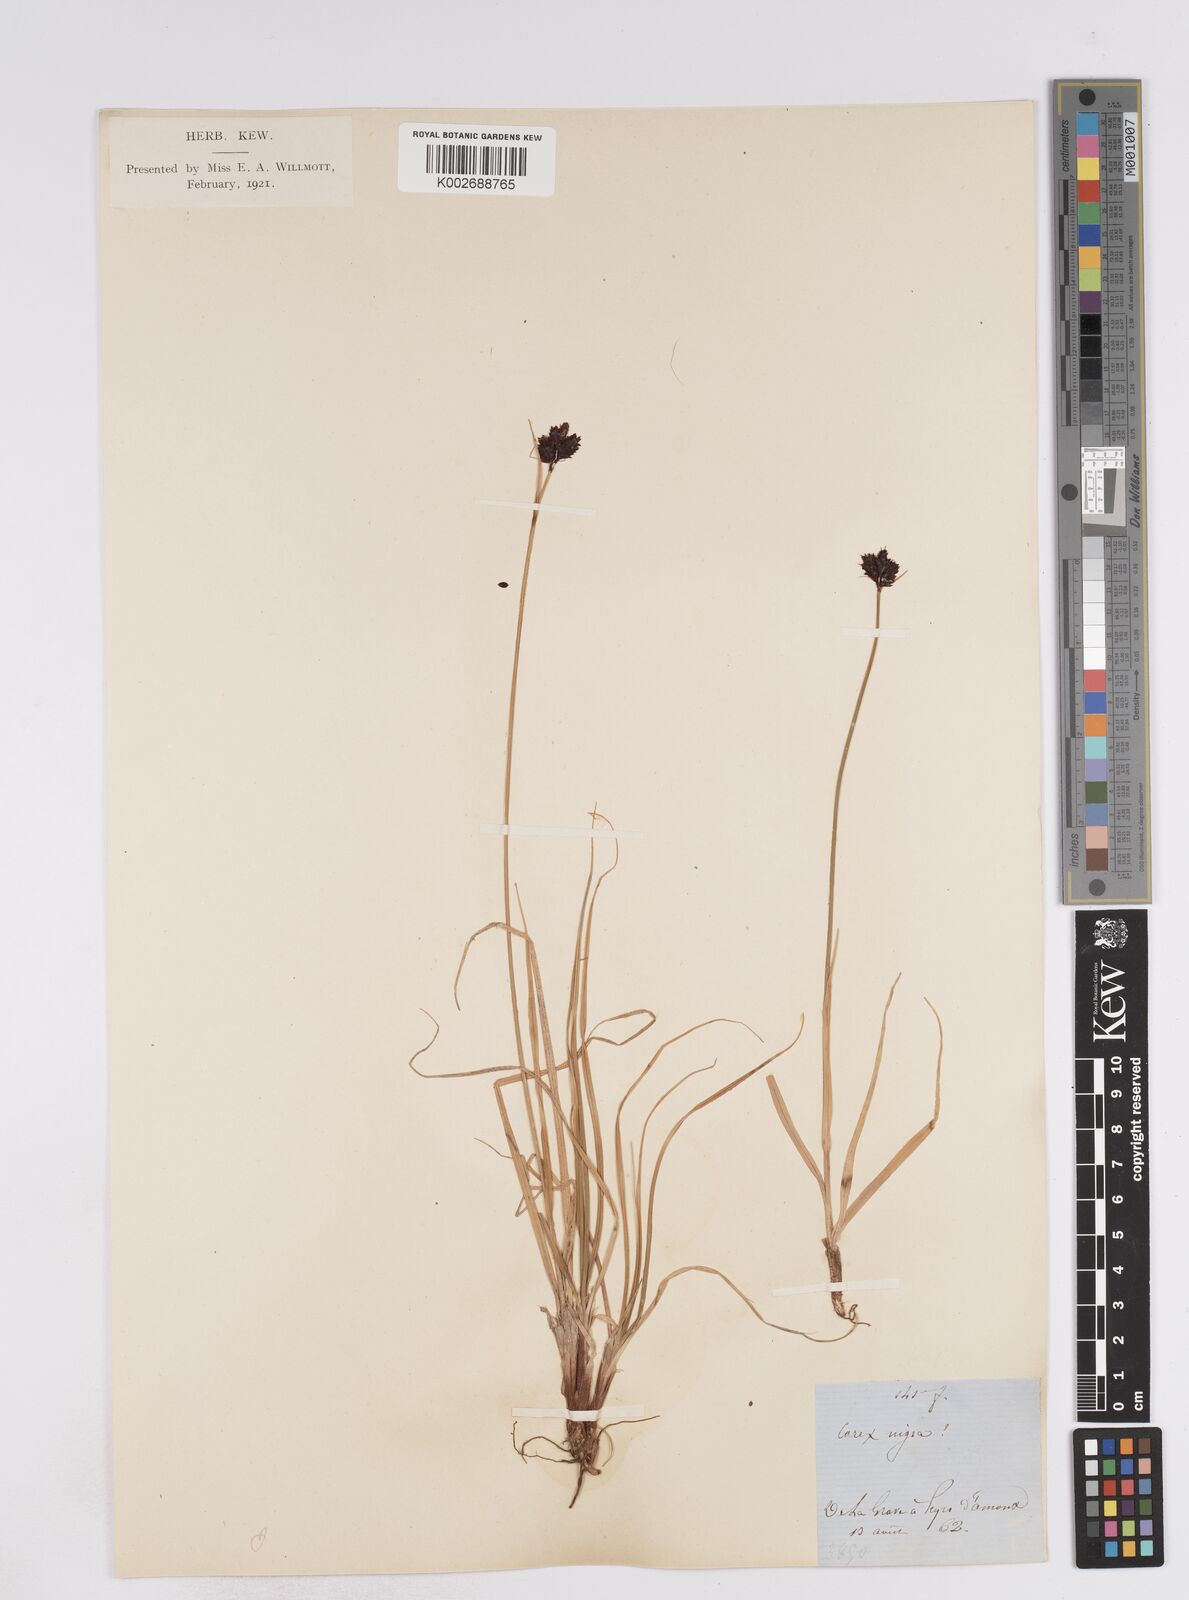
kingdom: Plantae
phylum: Tracheophyta
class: Liliopsida
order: Poales
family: Cyperaceae
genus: Carex
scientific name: Carex parviflora
